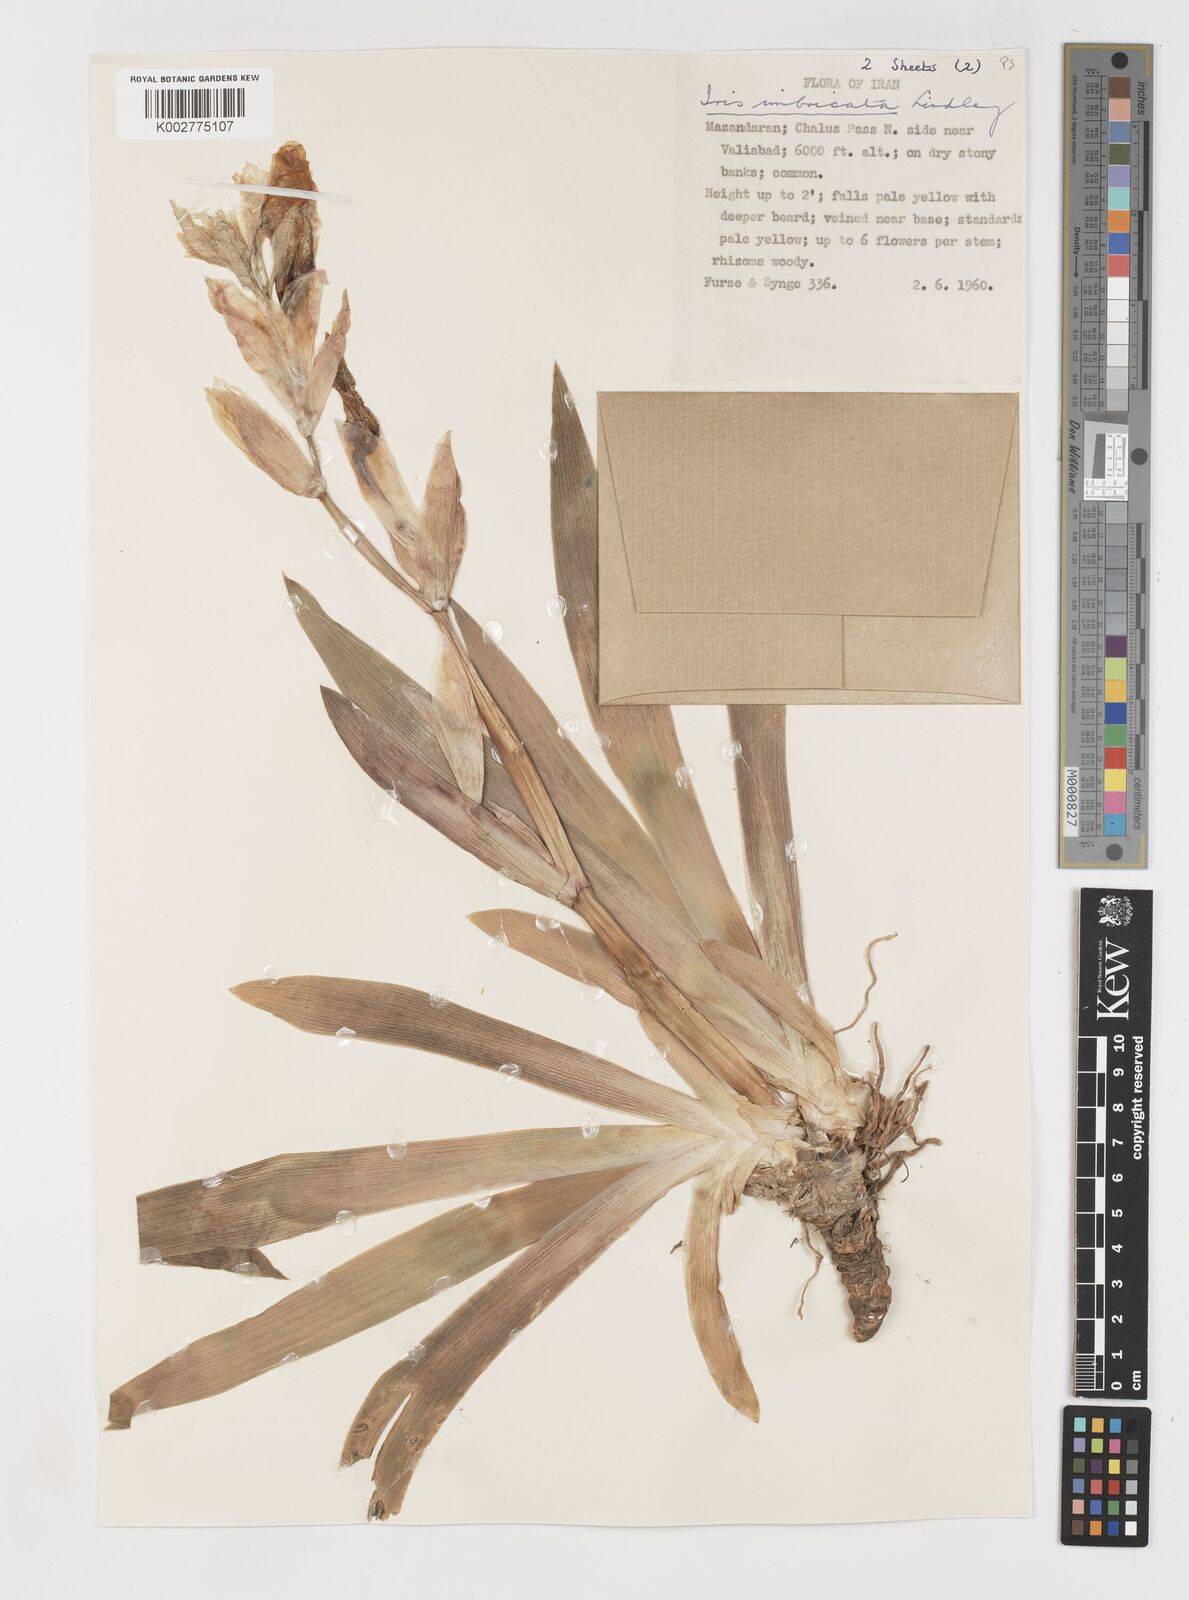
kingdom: Plantae
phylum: Tracheophyta
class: Liliopsida
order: Asparagales
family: Iridaceae
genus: Iris
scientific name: Iris imbricata
